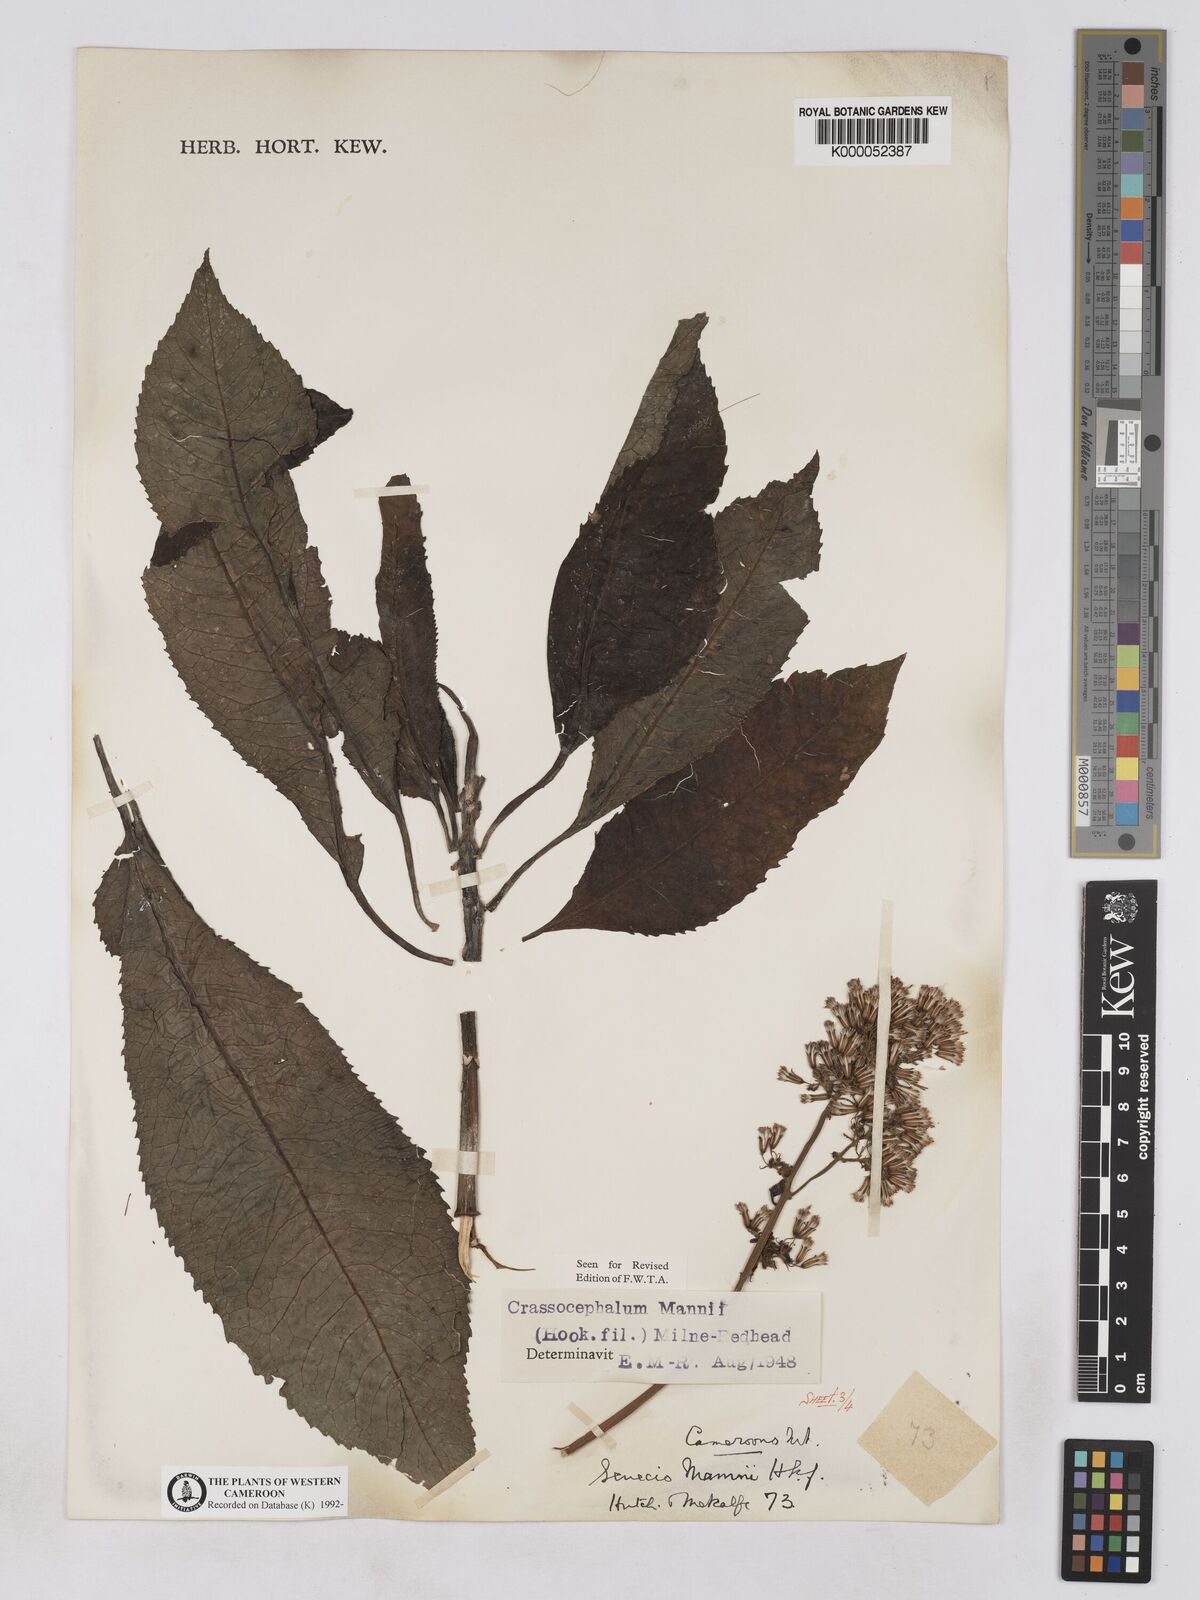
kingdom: Plantae
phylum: Tracheophyta
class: Magnoliopsida
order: Asterales
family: Asteraceae
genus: Solanecio
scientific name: Solanecio mannii
